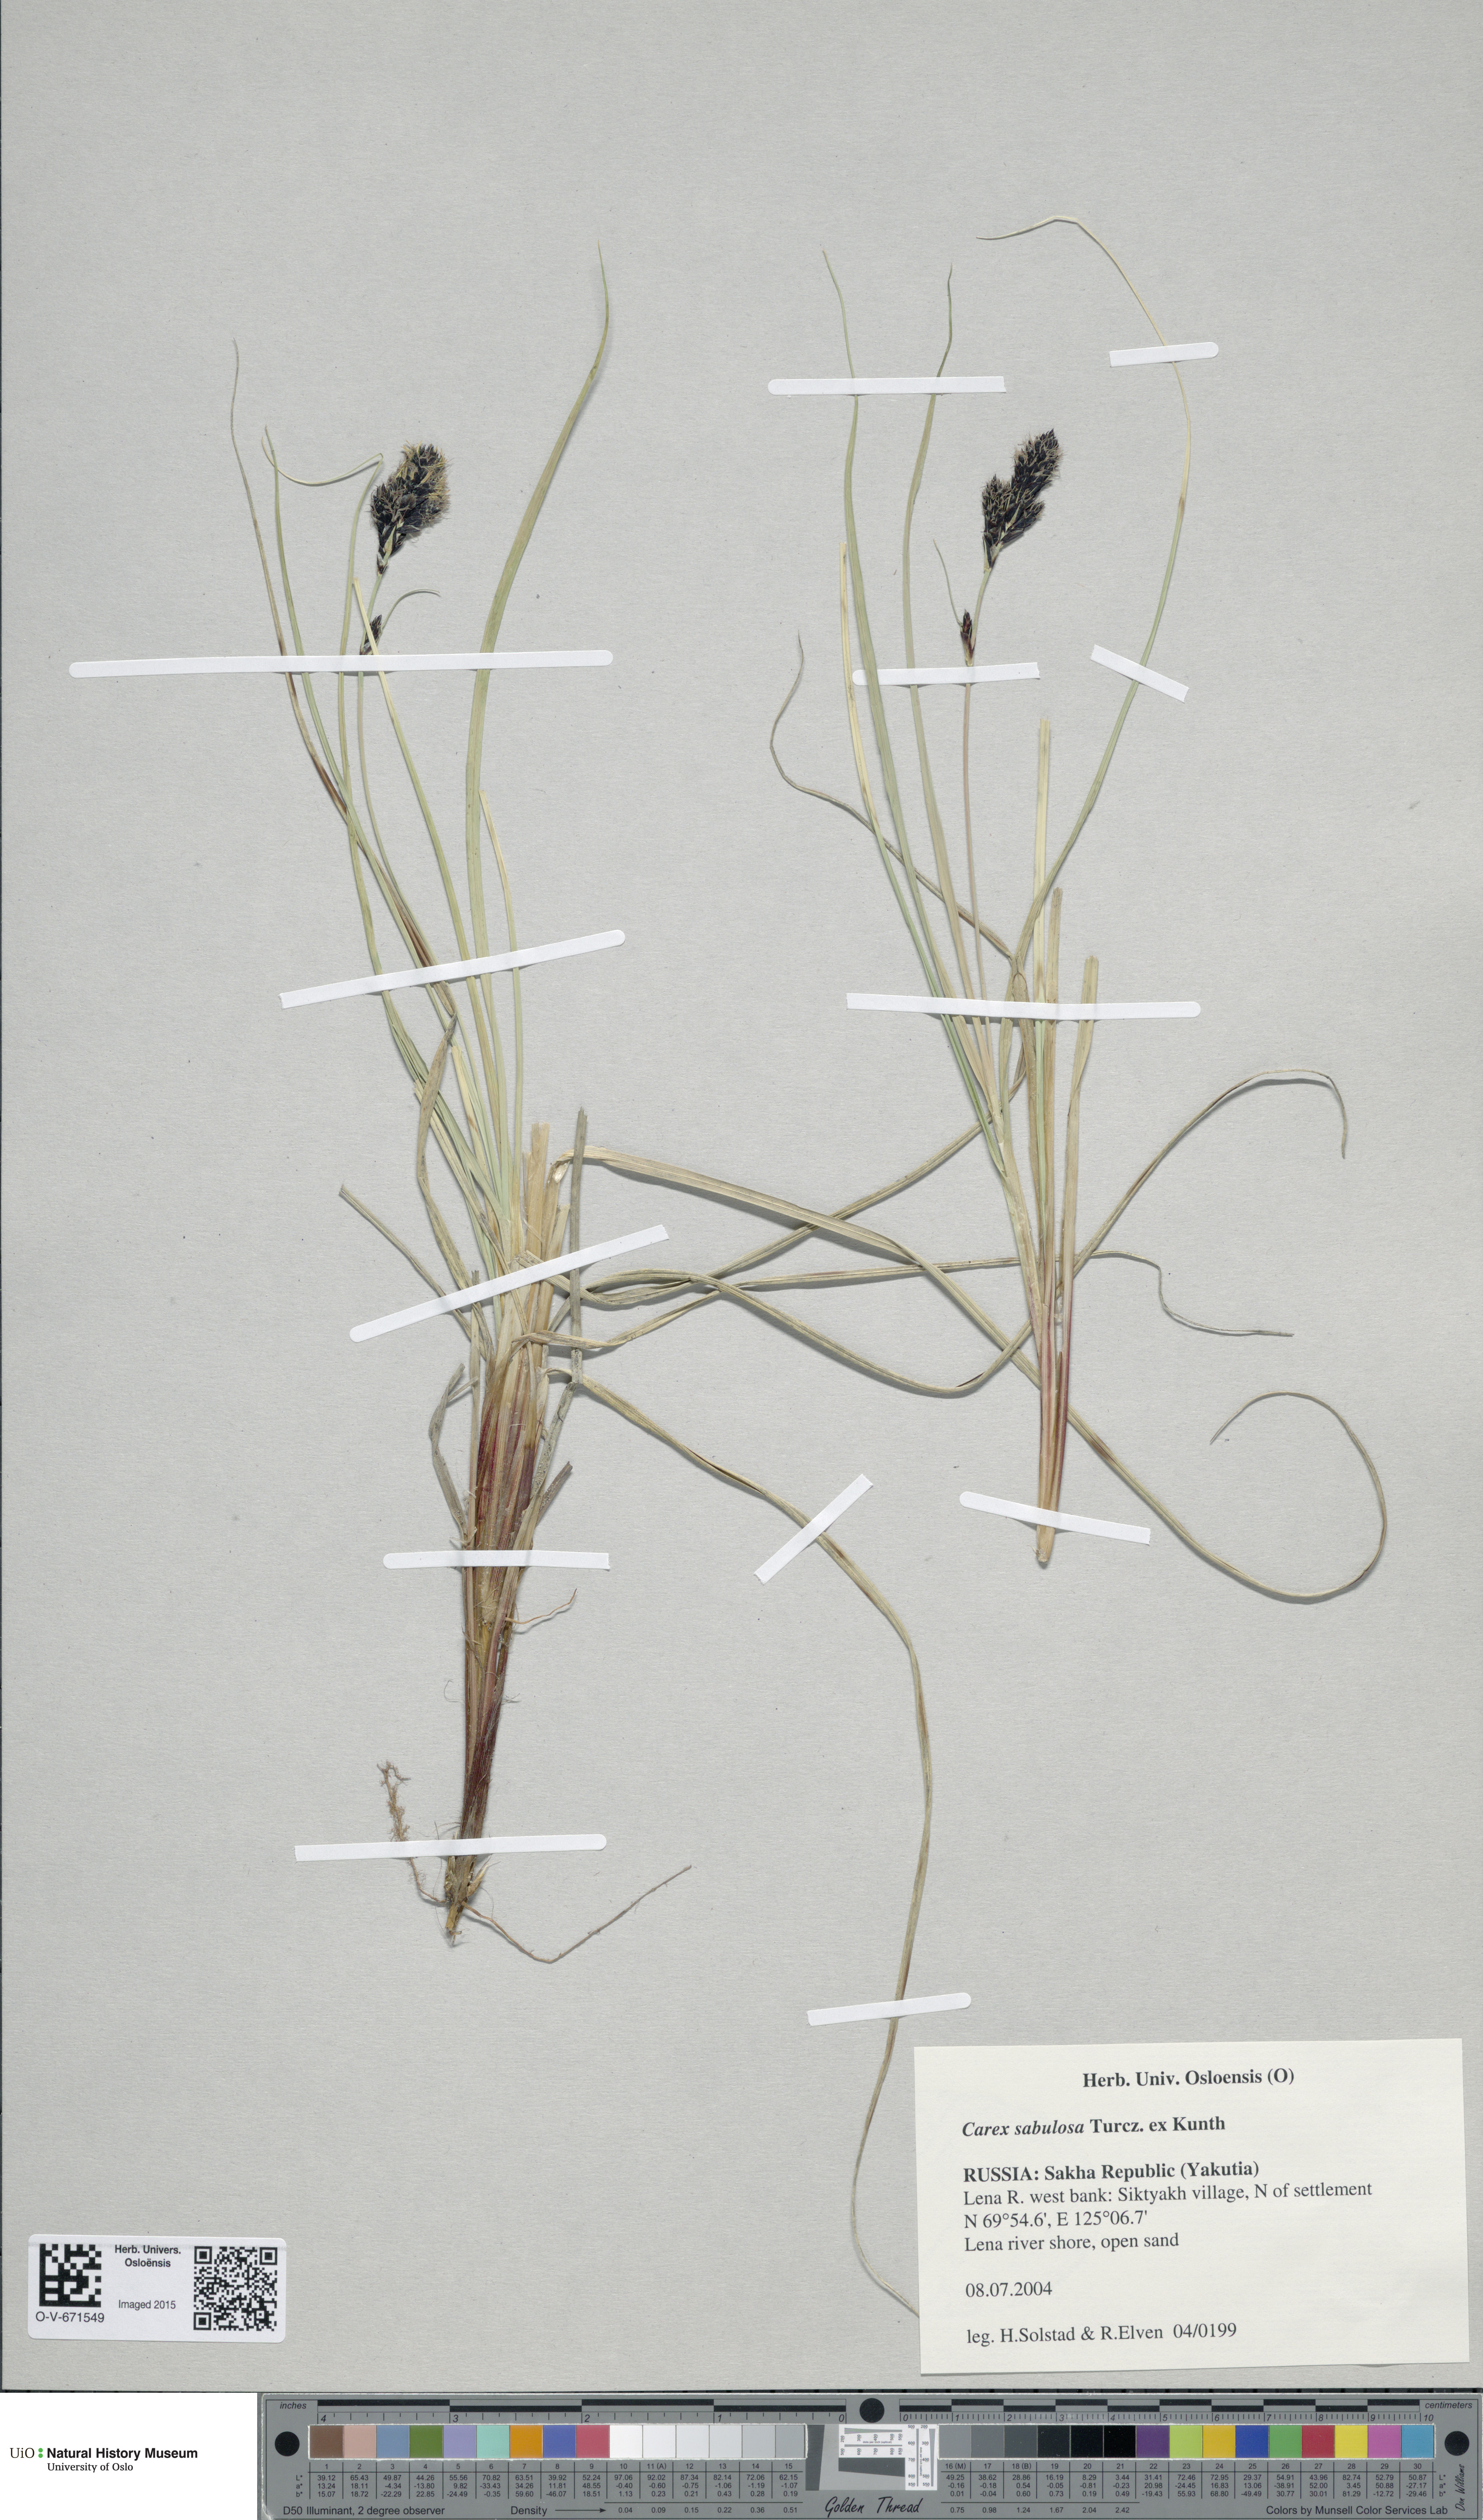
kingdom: Plantae
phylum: Tracheophyta
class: Liliopsida
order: Poales
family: Cyperaceae
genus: Carex
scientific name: Carex sabulosa
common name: Baikal sedge
